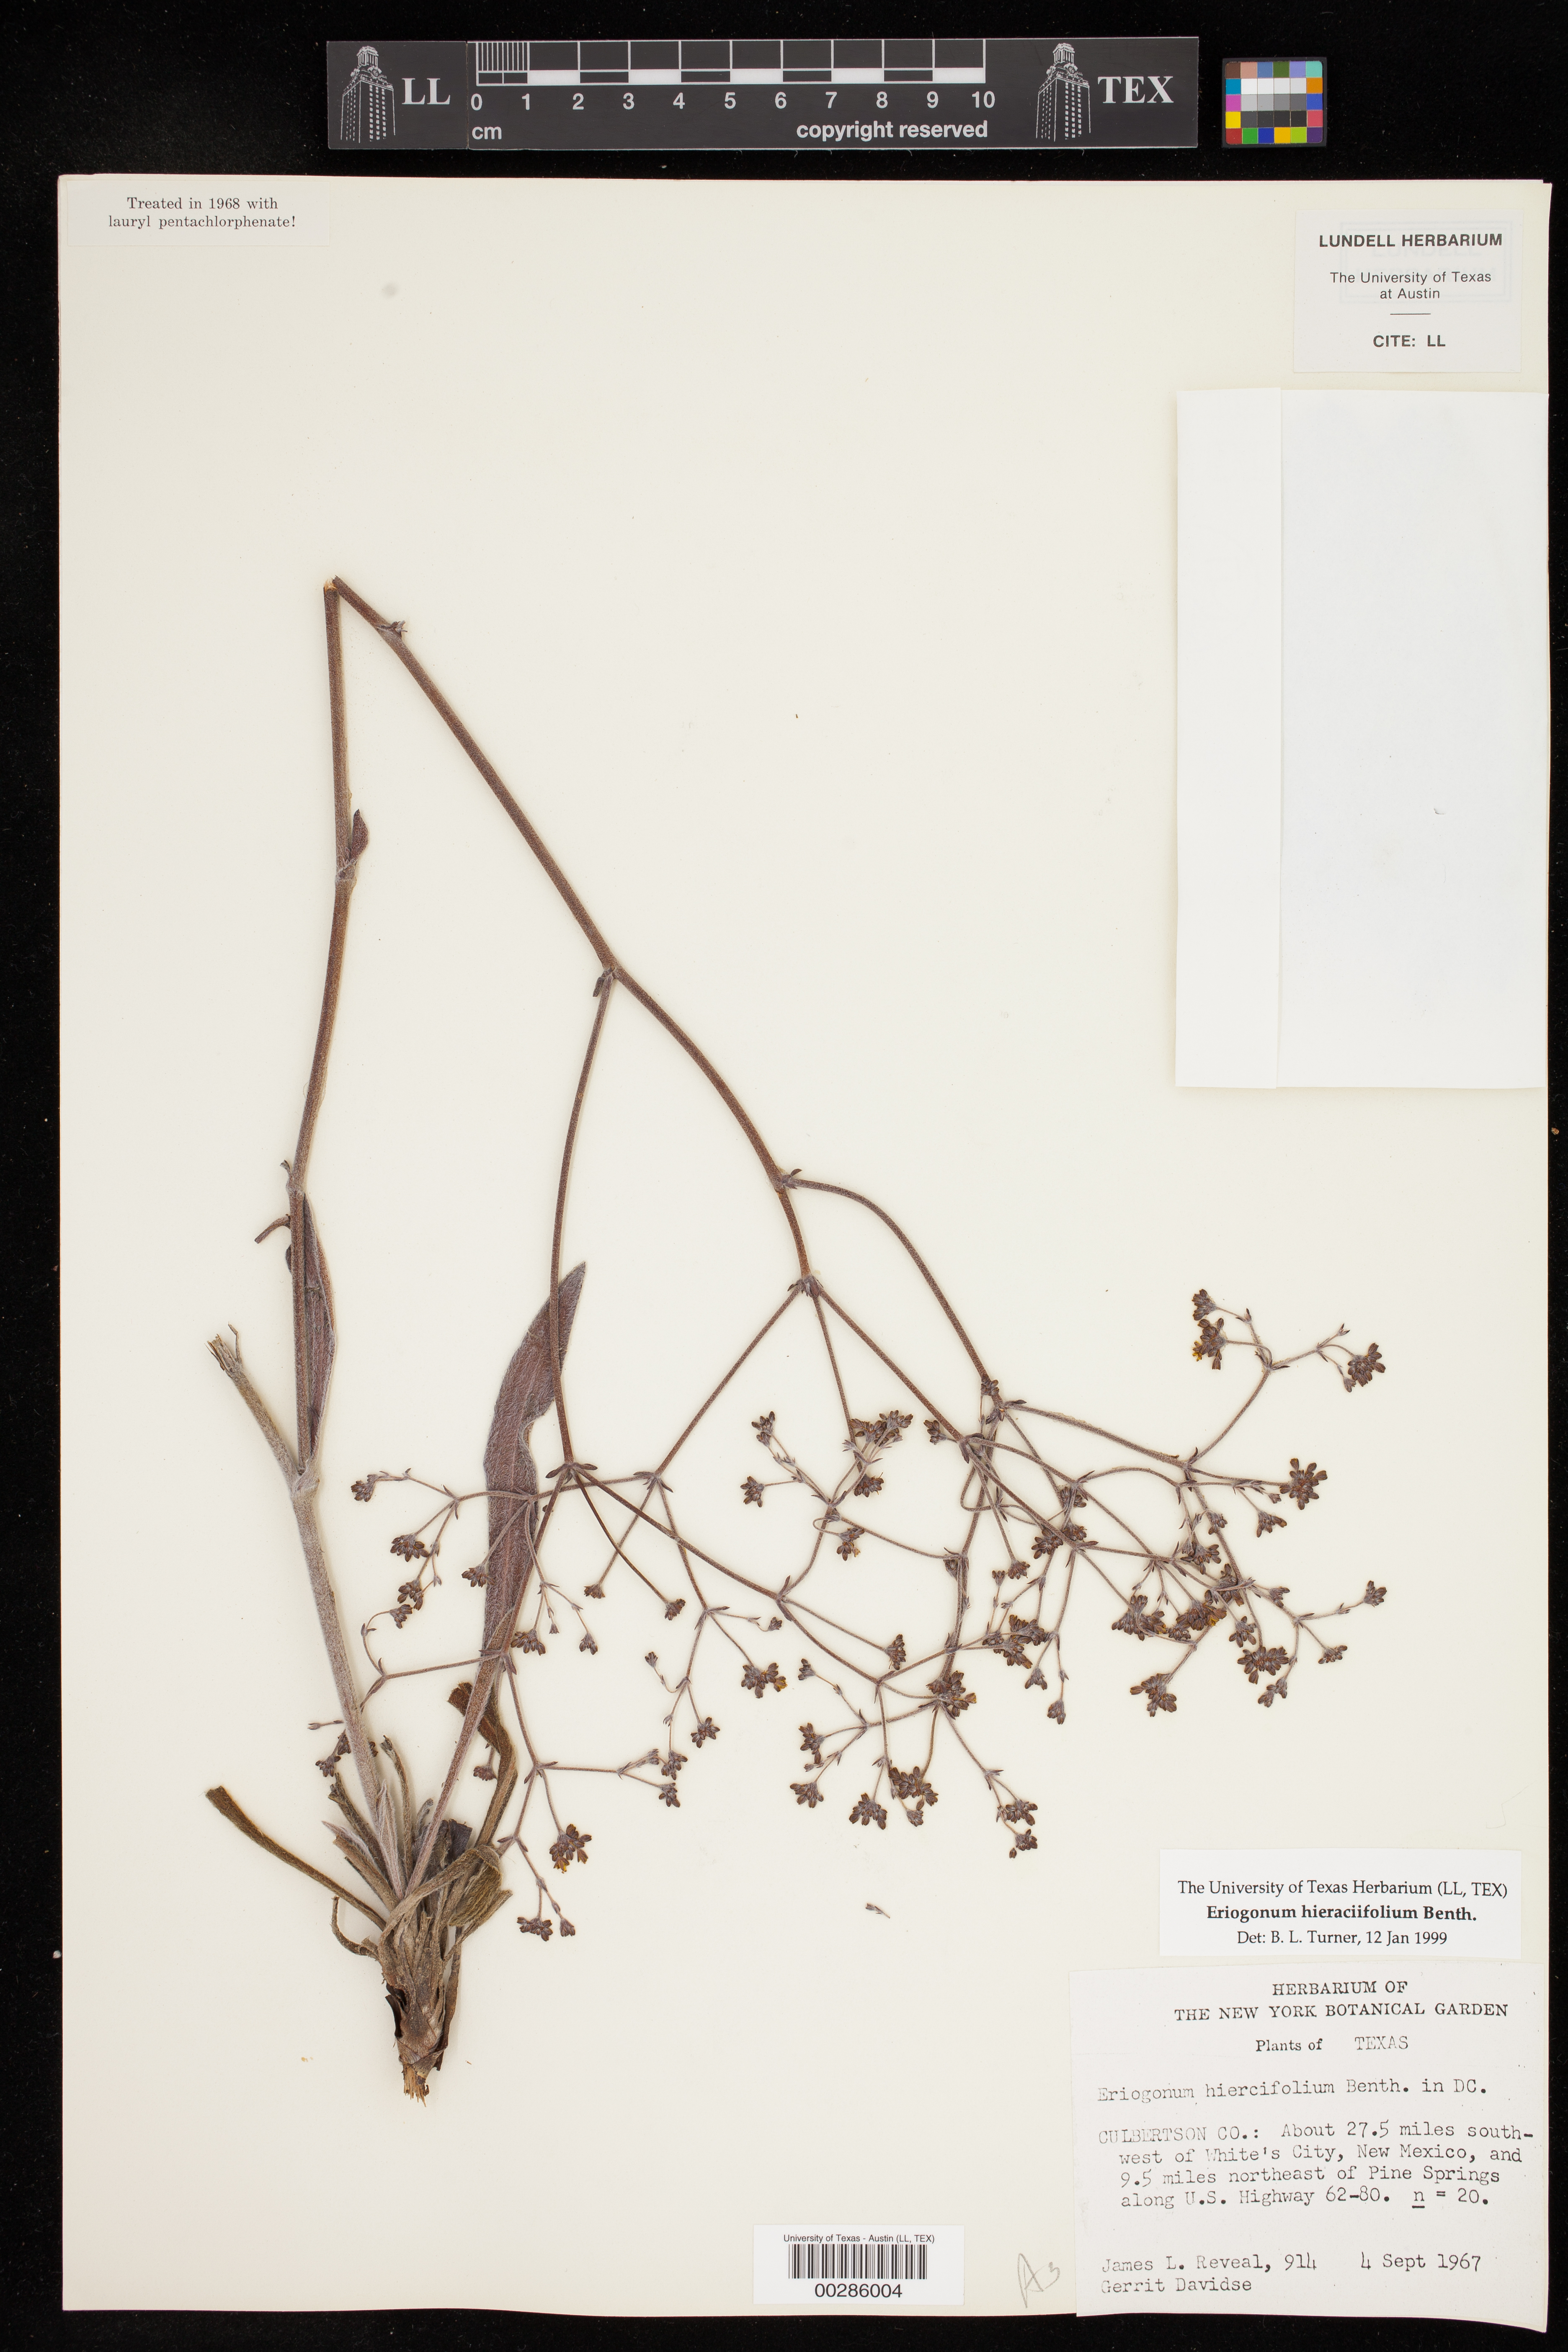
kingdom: Plantae
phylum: Tracheophyta
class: Magnoliopsida
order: Caryophyllales
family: Polygonaceae
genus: Eriogonum
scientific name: Eriogonum hieraciifolium
